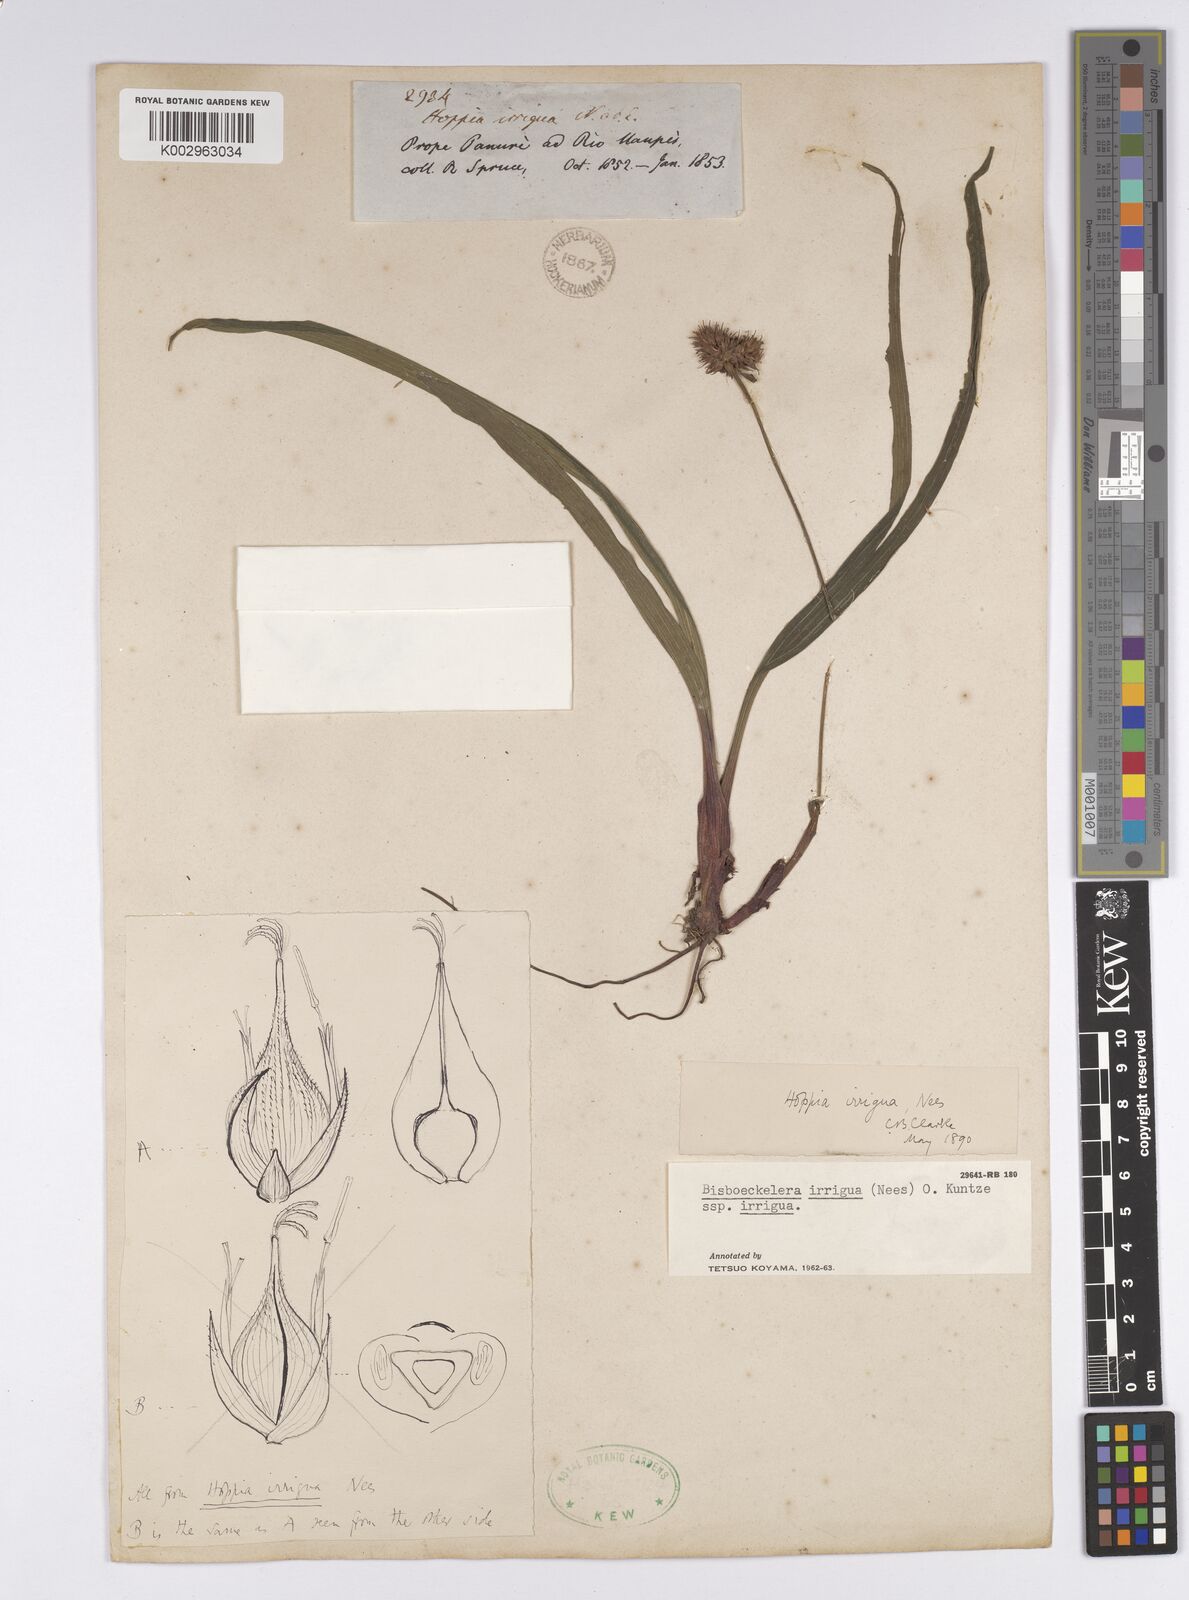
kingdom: Plantae
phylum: Tracheophyta
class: Liliopsida
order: Poales
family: Cyperaceae
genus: Bisboeckelera
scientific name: Bisboeckelera irrigua
